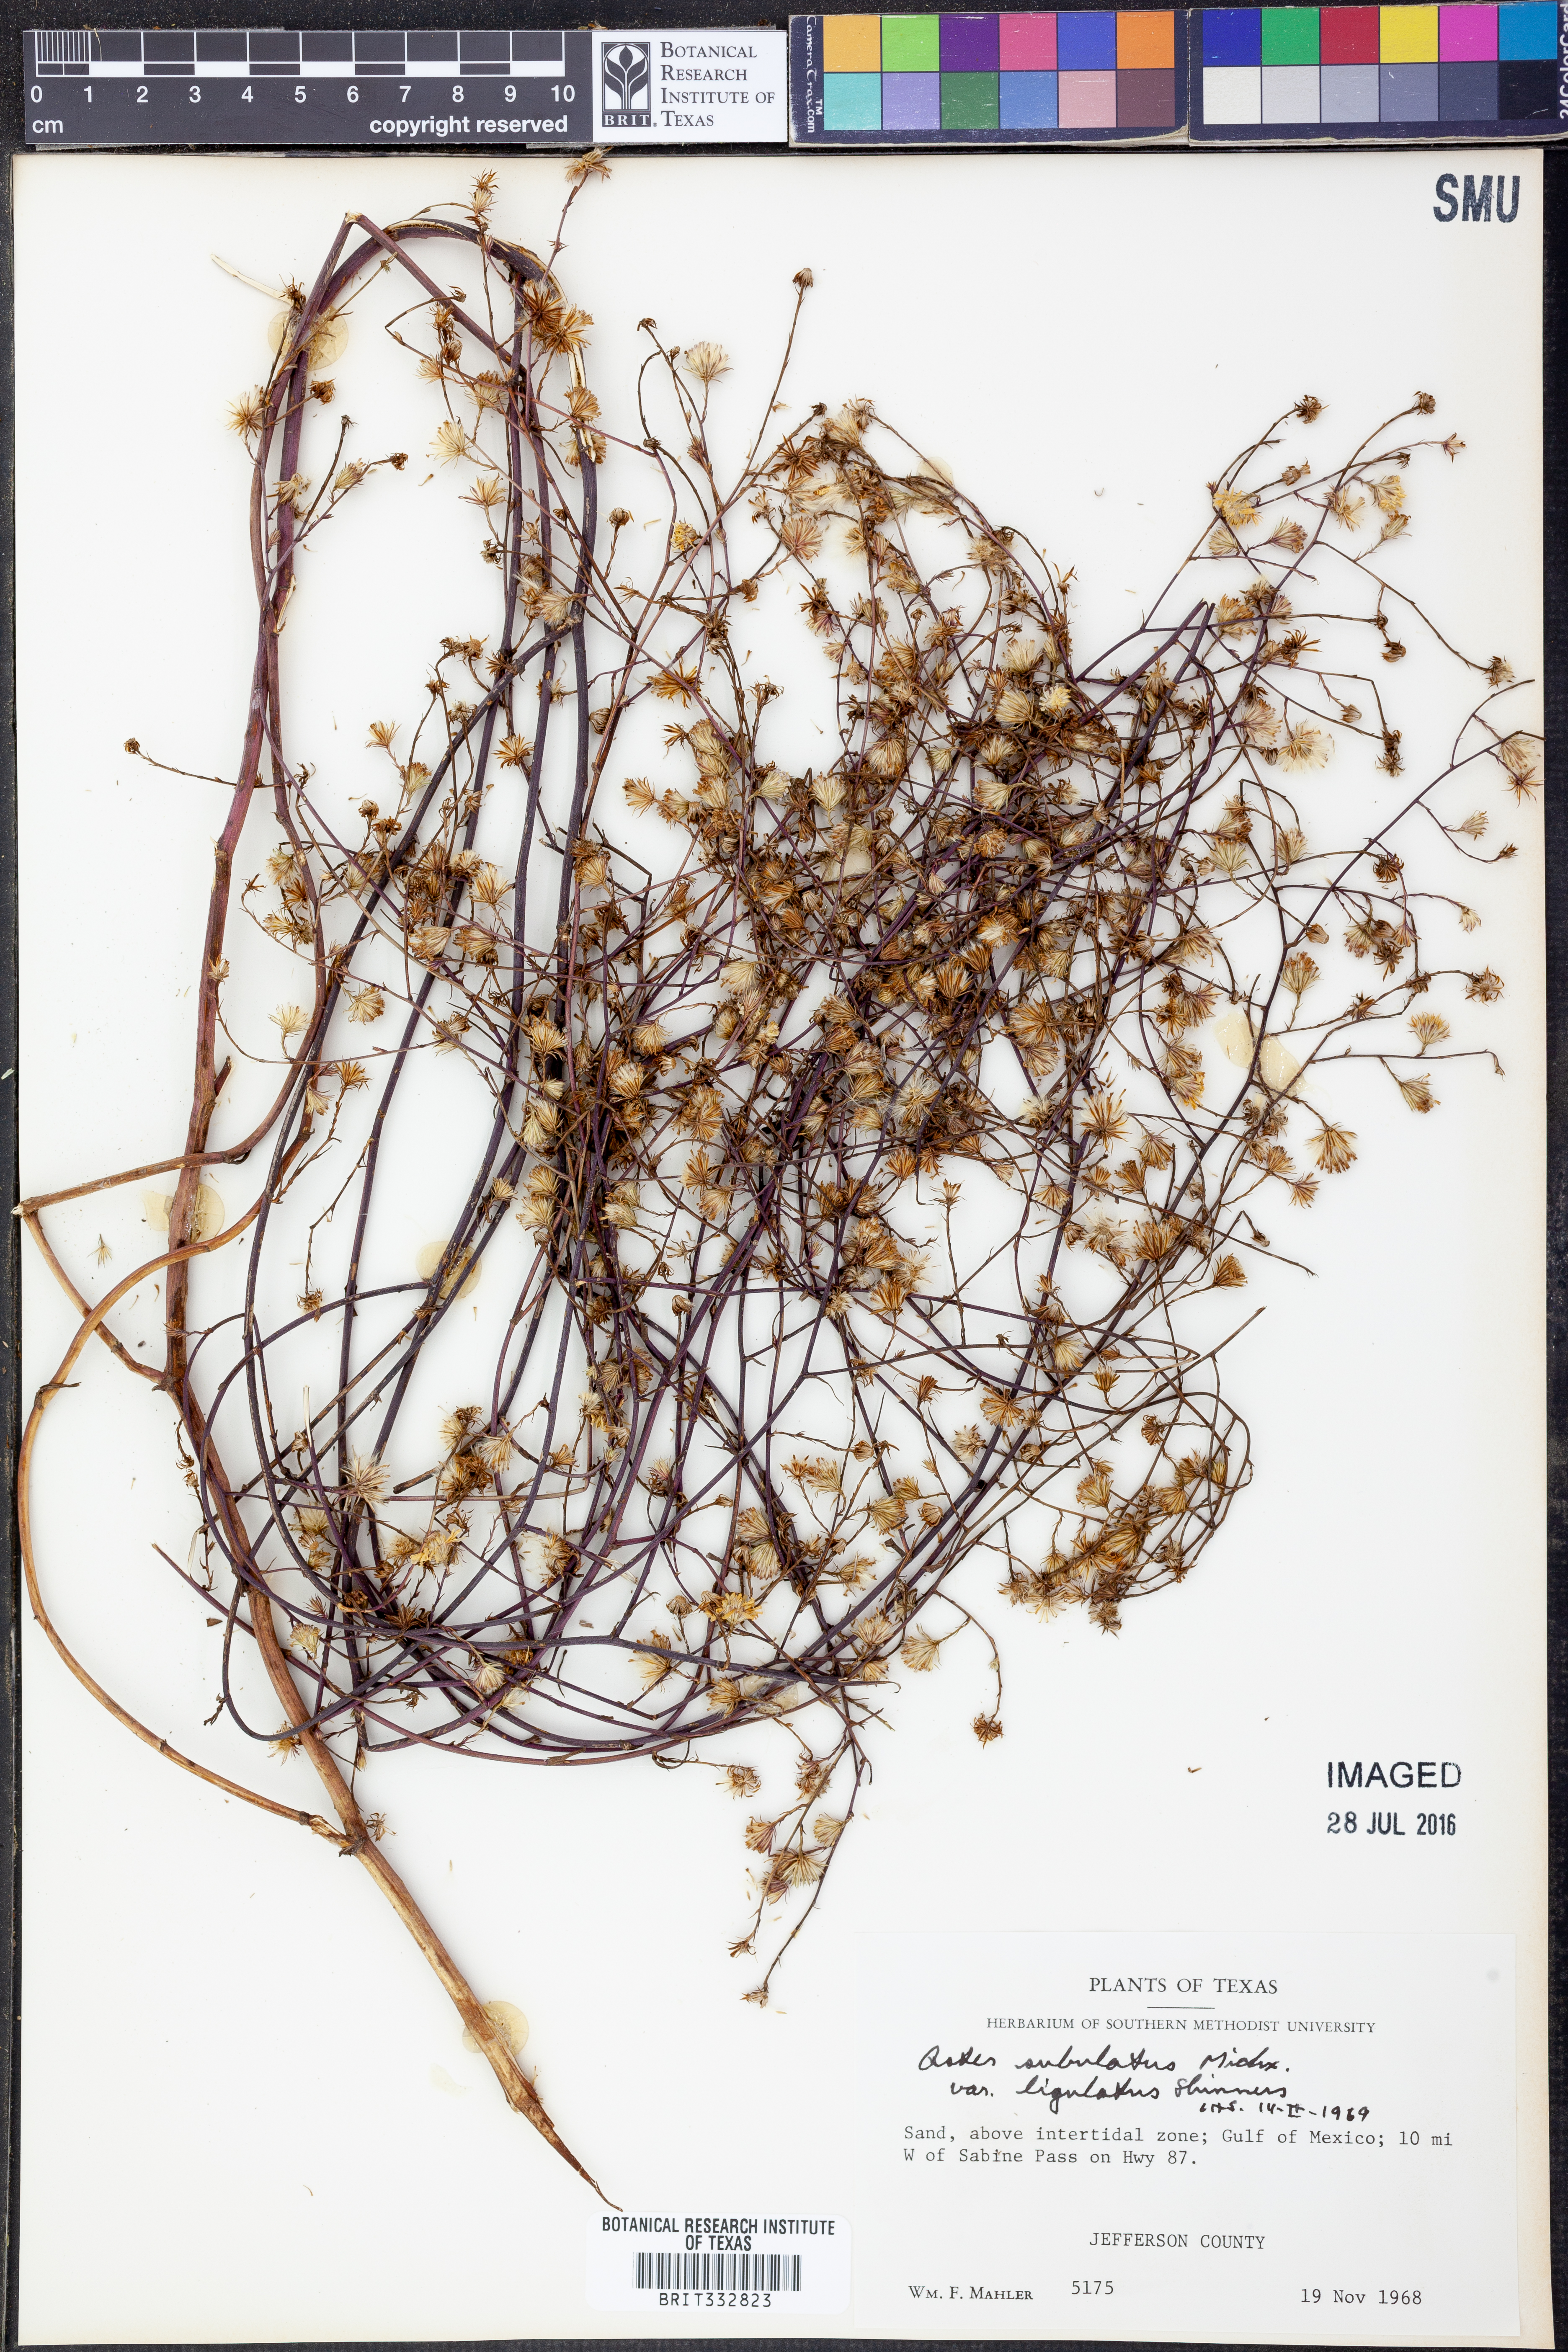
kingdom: Plantae
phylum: Tracheophyta
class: Magnoliopsida
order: Asterales
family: Asteraceae
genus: Symphyotrichum
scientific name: Symphyotrichum divaricatum
